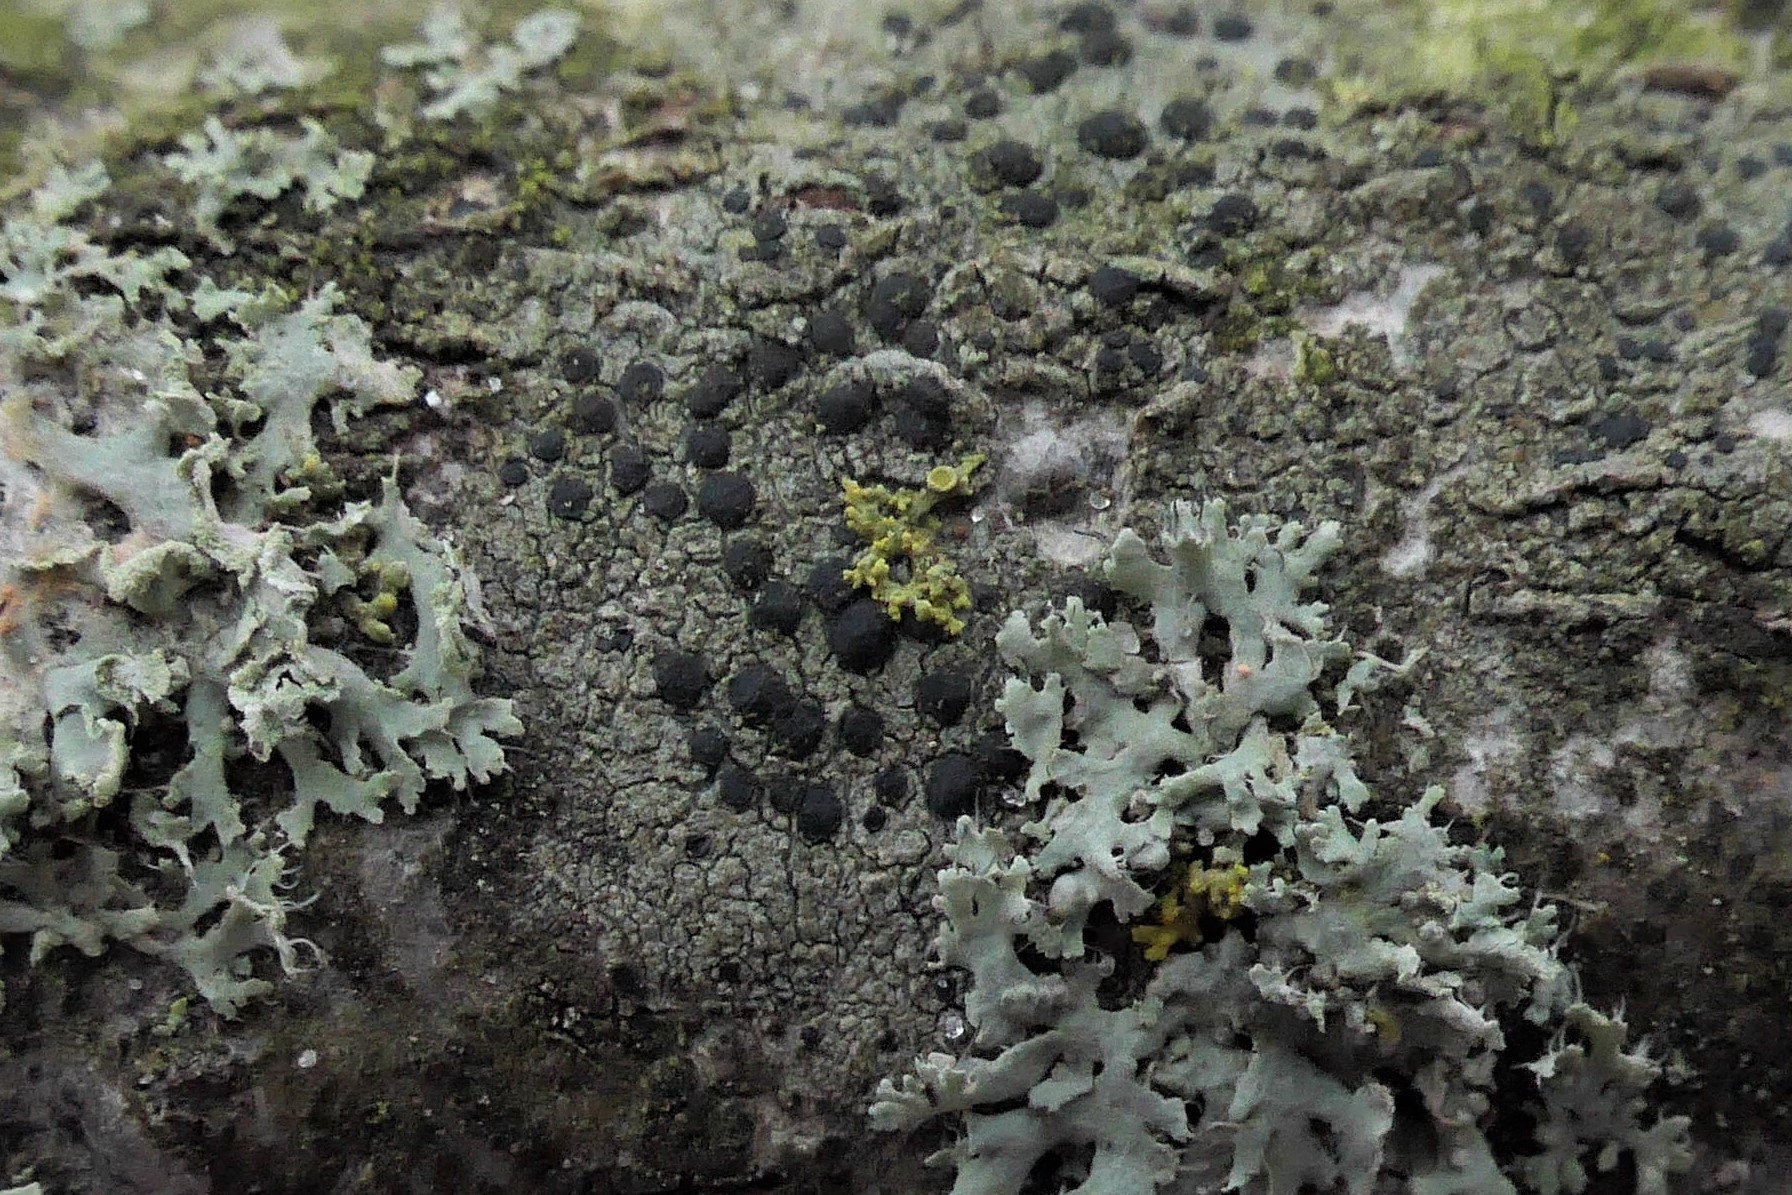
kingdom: Fungi
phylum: Ascomycota
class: Lecanoromycetes
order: Lecanorales
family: Lecanoraceae
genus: Lecidella
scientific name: Lecidella elaeochroma
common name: grågrøn skivelav
